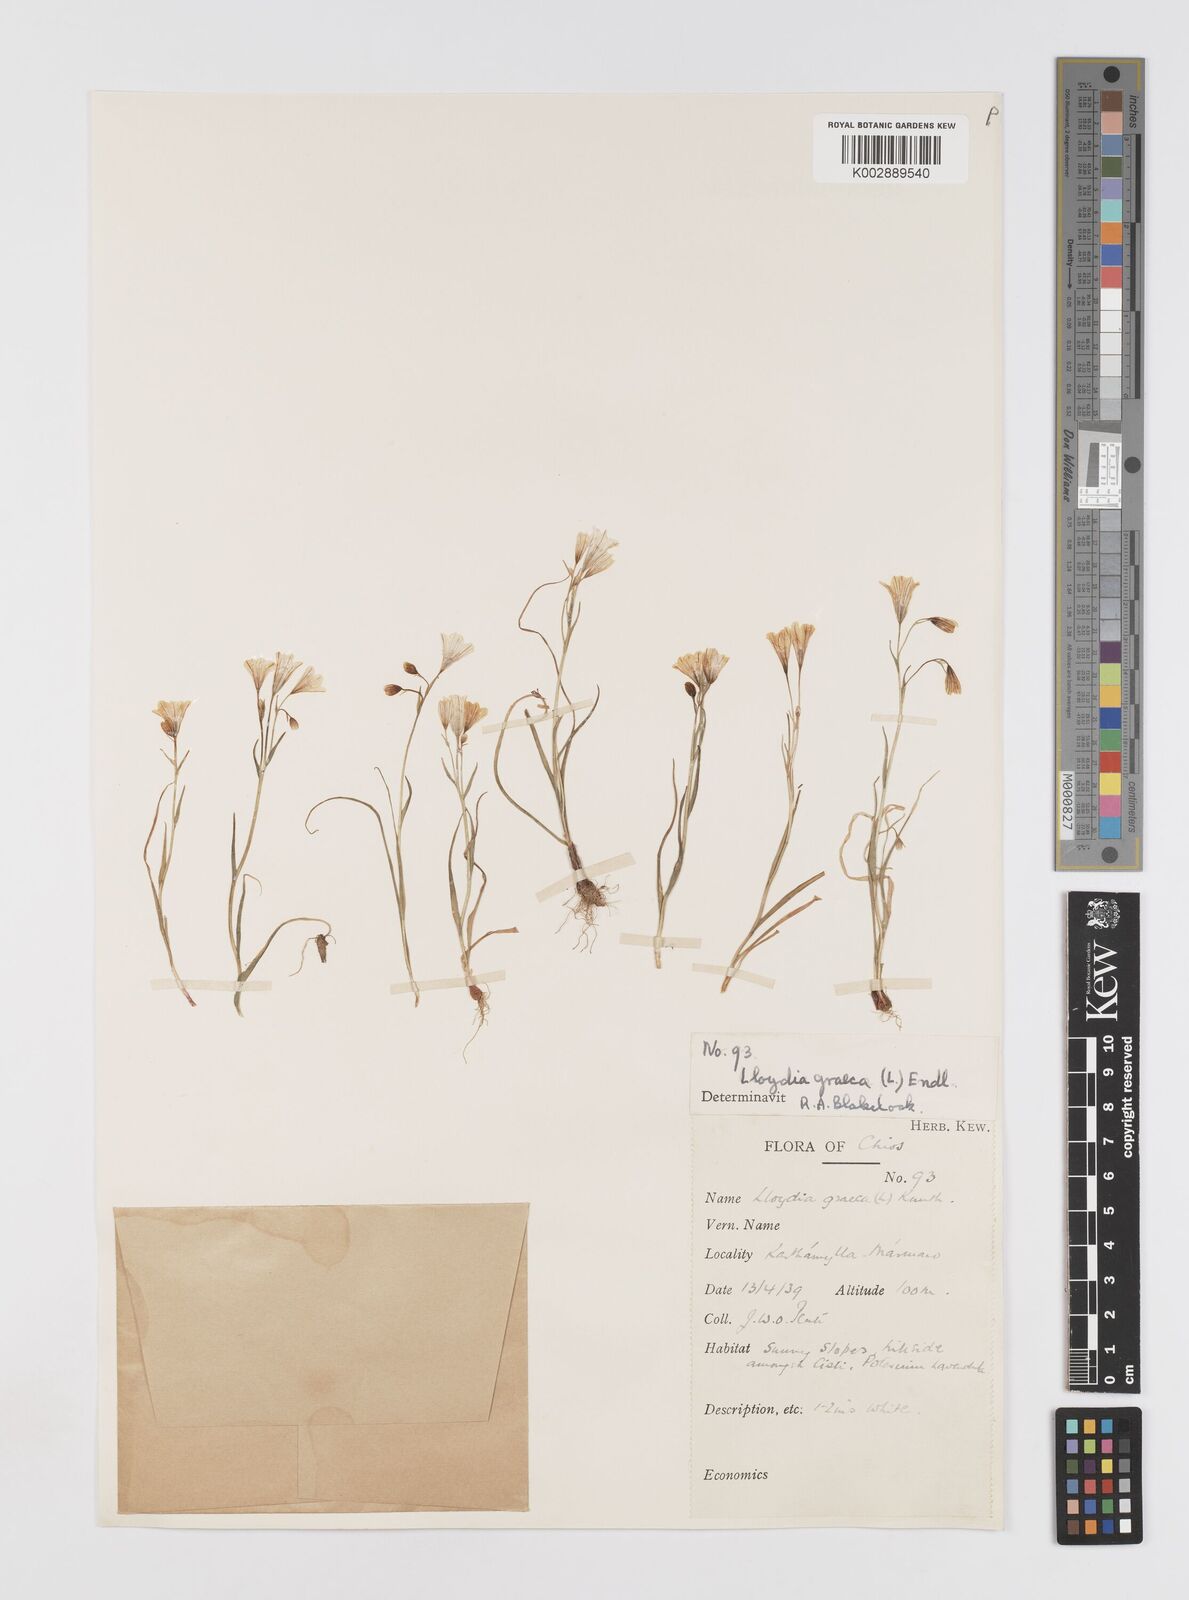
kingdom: Plantae
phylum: Tracheophyta
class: Liliopsida
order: Liliales
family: Liliaceae
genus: Gagea
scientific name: Gagea graeca
